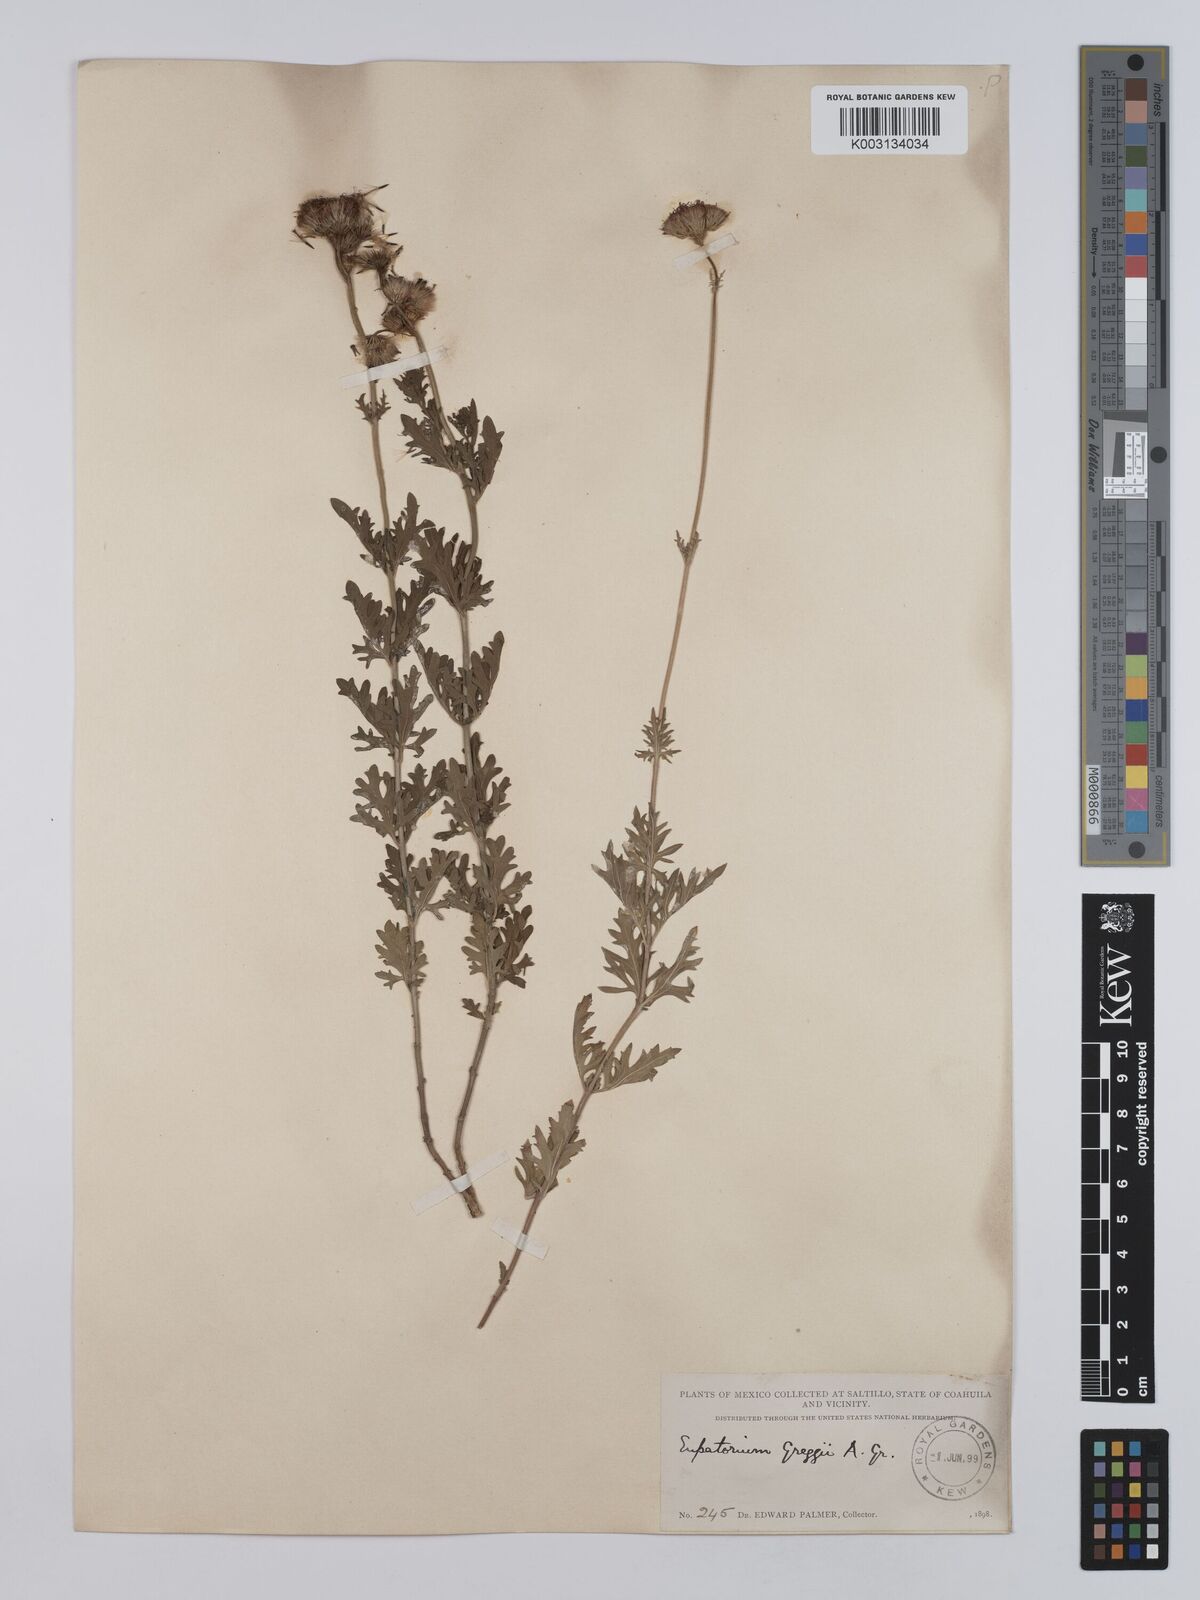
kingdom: Plantae
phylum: Tracheophyta
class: Magnoliopsida
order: Asterales
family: Asteraceae
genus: Conoclinium
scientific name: Conoclinium dissectum
